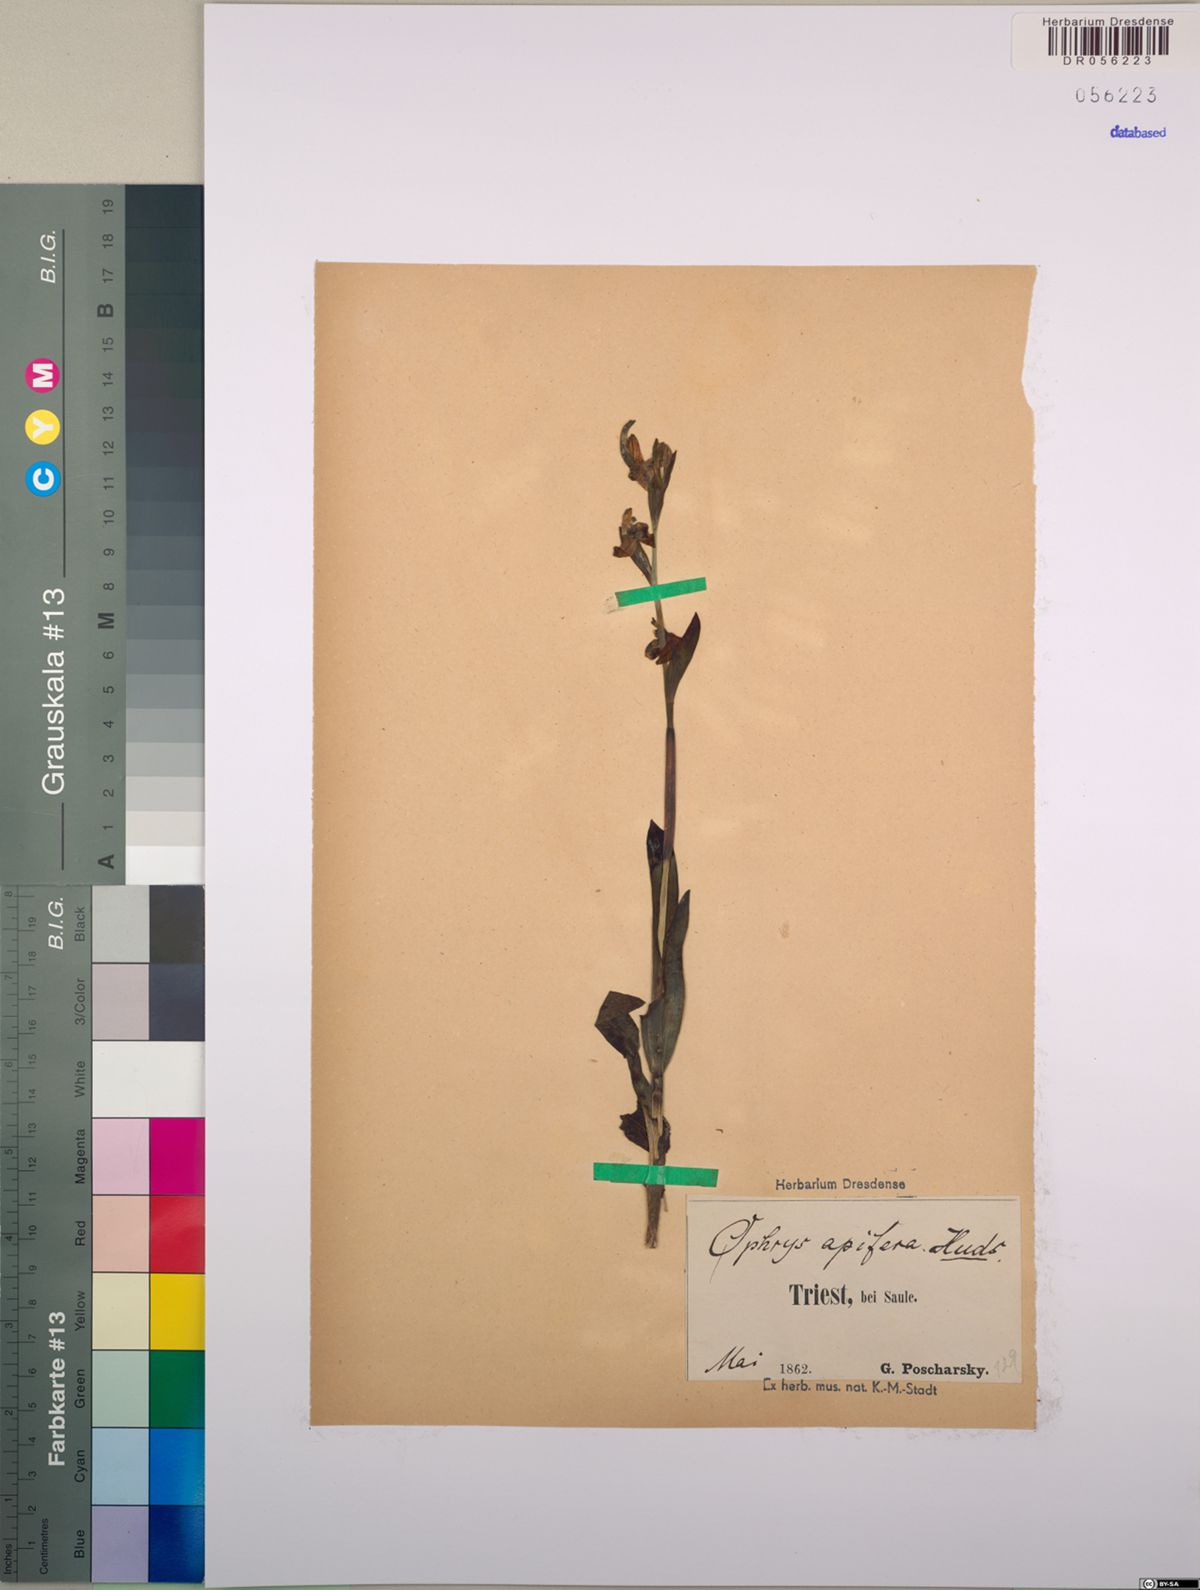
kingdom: Plantae
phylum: Tracheophyta
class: Liliopsida
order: Asparagales
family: Orchidaceae
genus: Ophrys
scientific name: Ophrys apifera
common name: Bee orchid
